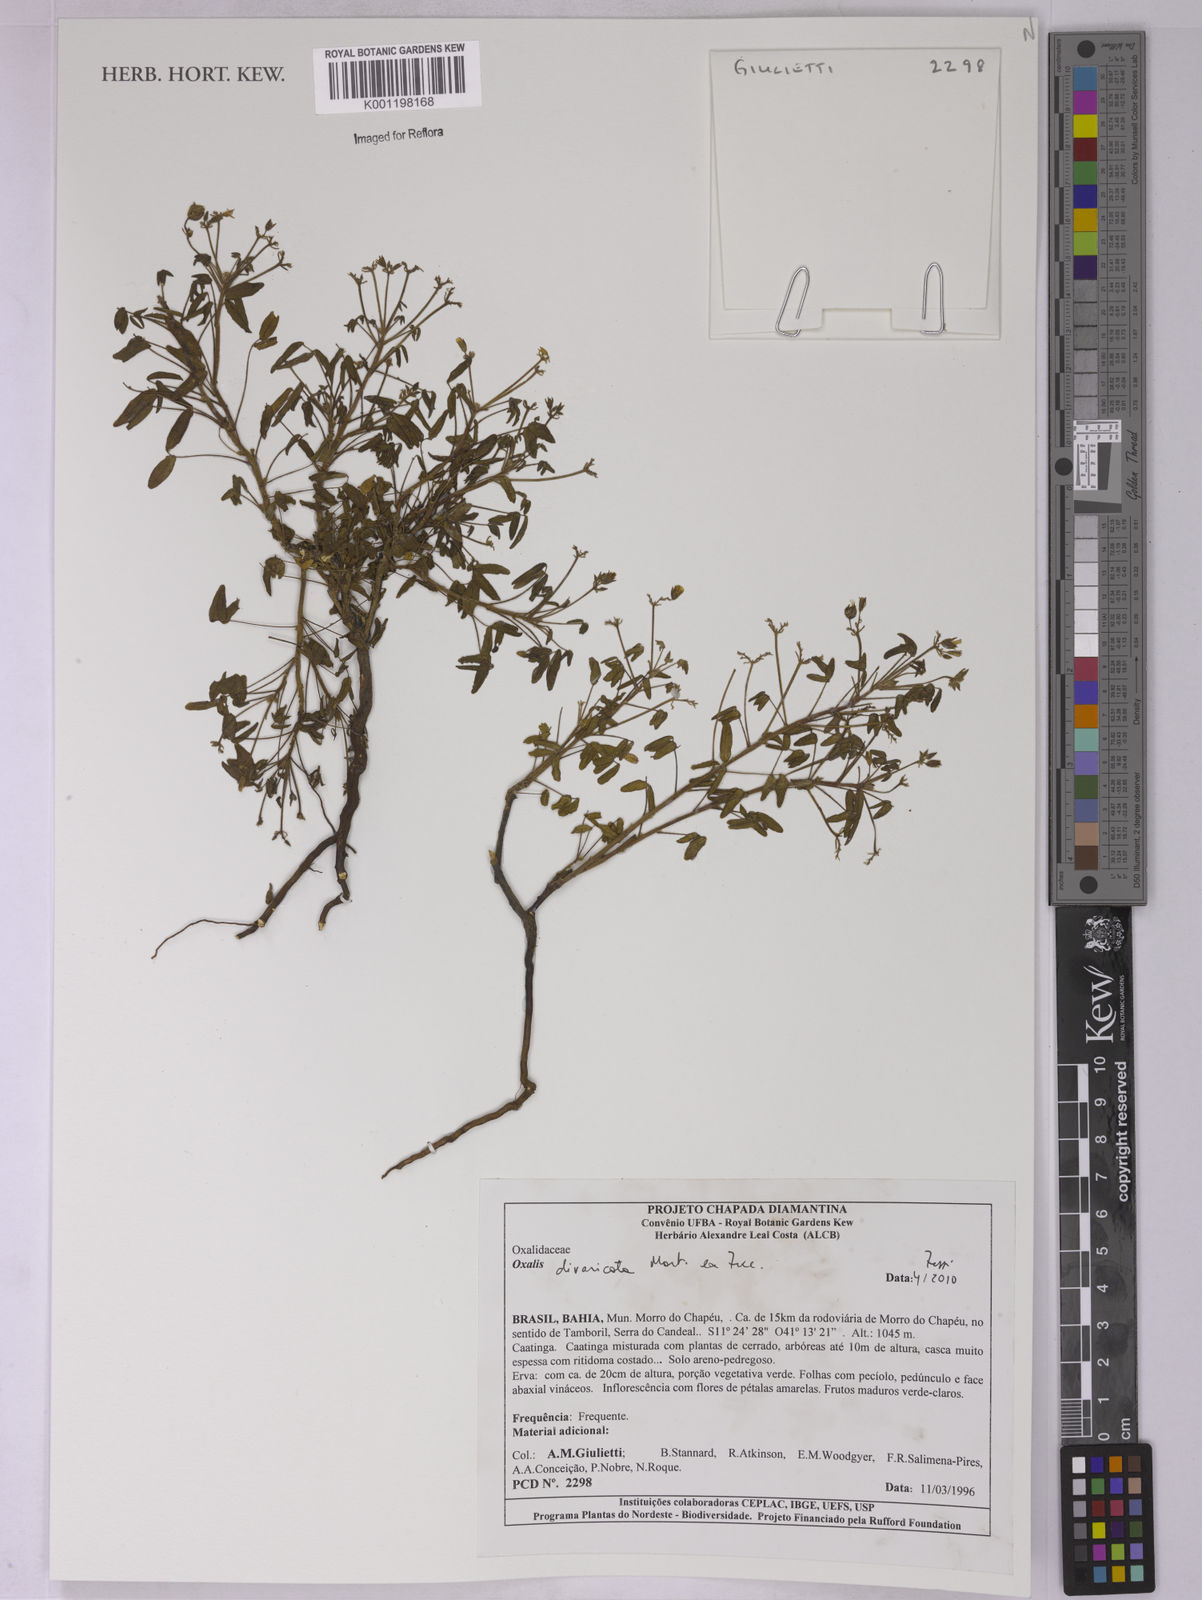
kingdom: Plantae
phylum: Tracheophyta
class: Magnoliopsida
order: Oxalidales
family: Oxalidaceae
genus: Oxalis
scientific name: Oxalis divaricata
